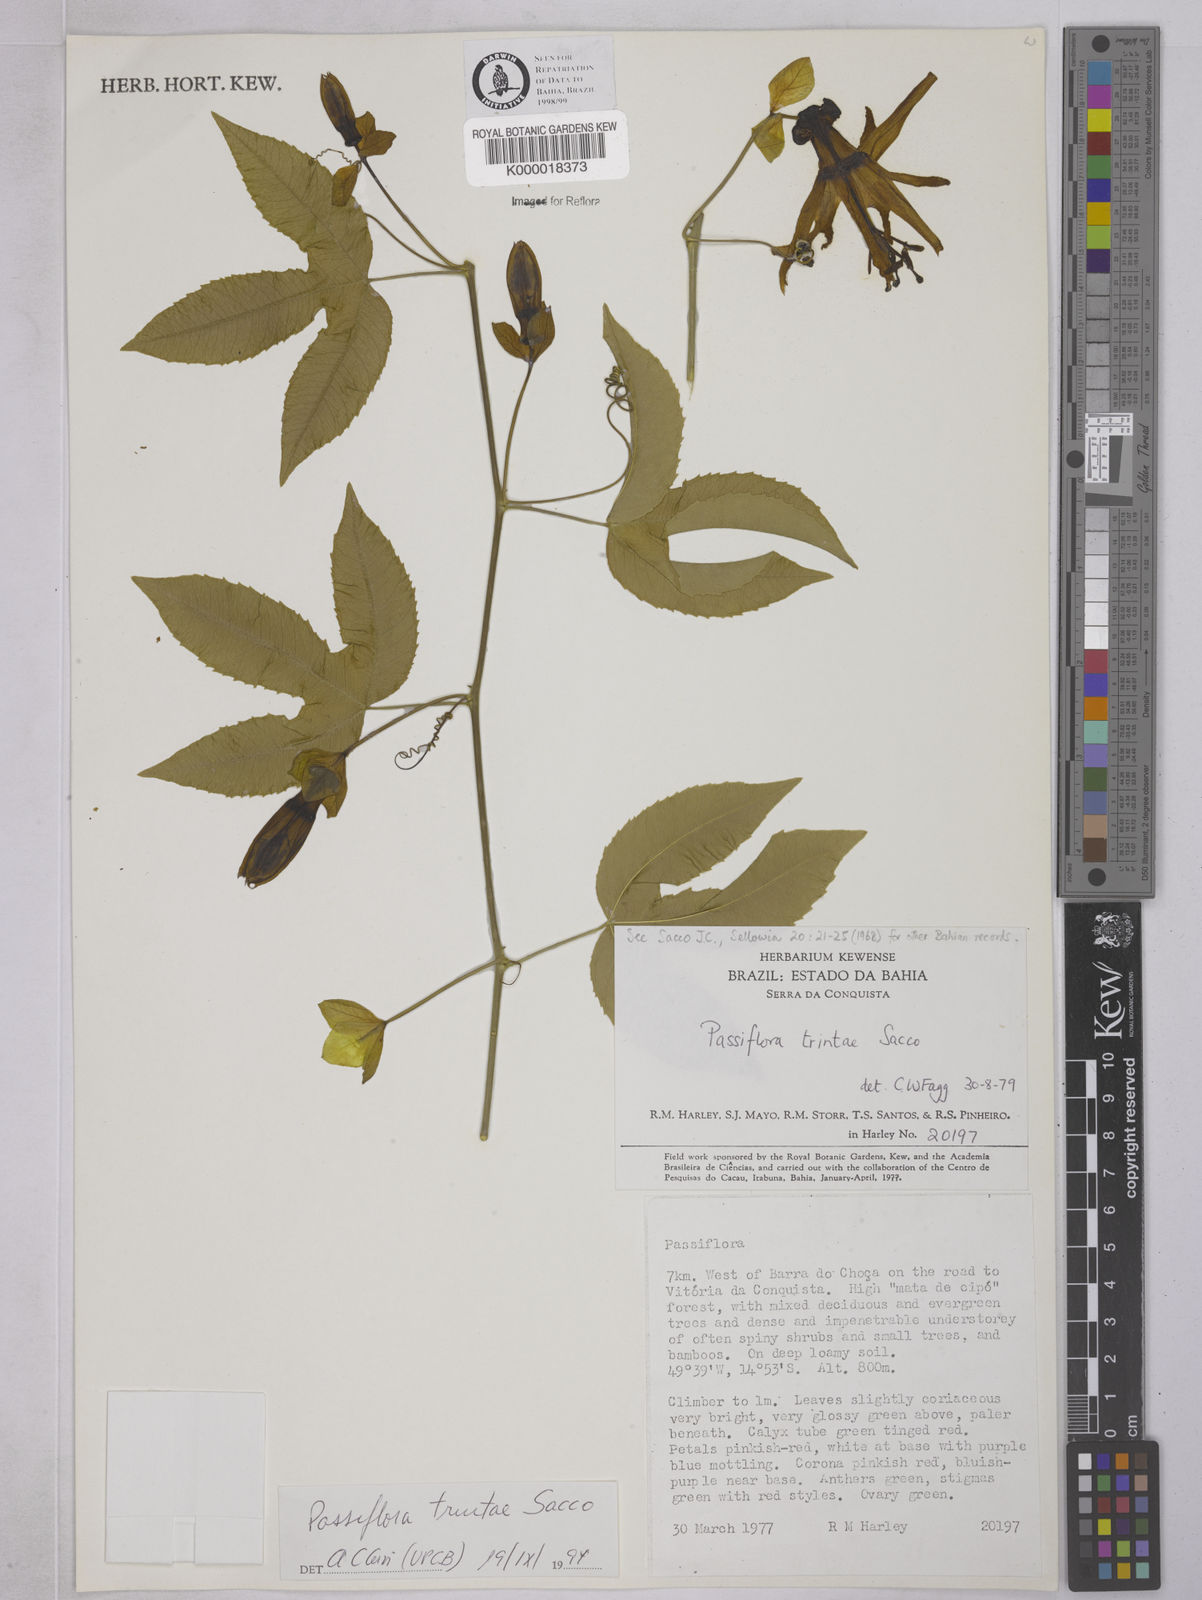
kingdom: Plantae
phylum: Tracheophyta
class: Magnoliopsida
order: Malpighiales
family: Passifloraceae
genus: Passiflora
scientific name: Passiflora trintae
